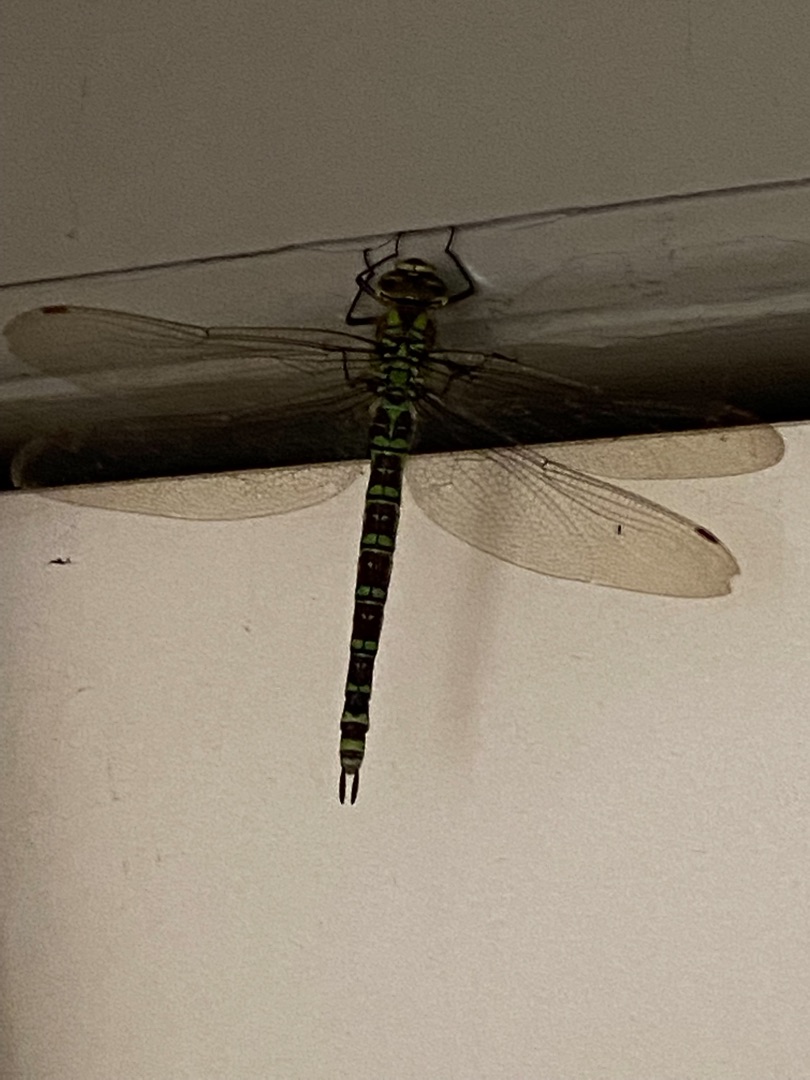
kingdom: Animalia
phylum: Arthropoda
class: Insecta
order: Odonata
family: Aeshnidae
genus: Aeshna
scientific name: Aeshna cyanea
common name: Blå mosaikguldsmed
